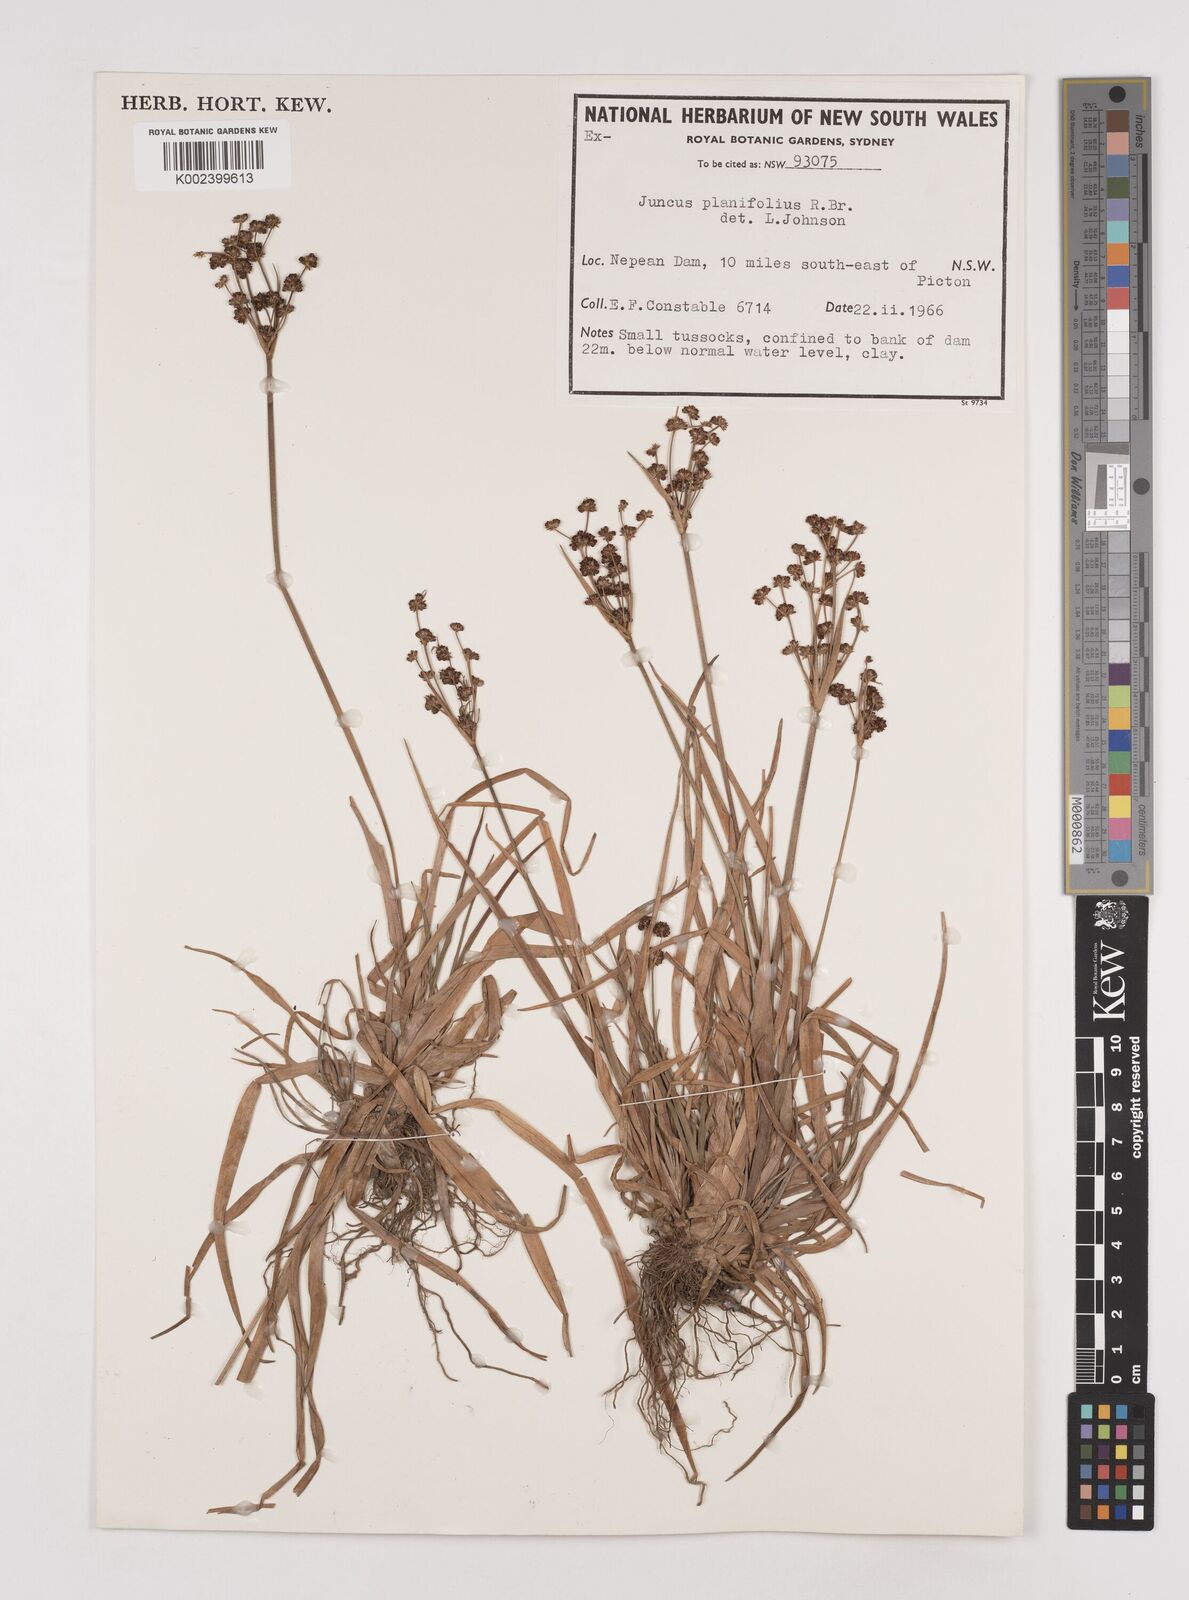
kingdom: Plantae
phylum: Tracheophyta
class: Liliopsida
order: Poales
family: Juncaceae
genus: Juncus
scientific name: Juncus planifolius
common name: Broadleaf rush
